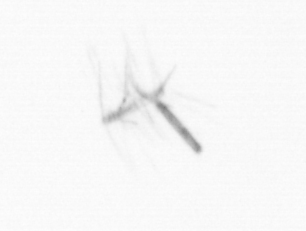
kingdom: Chromista
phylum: Ochrophyta
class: Bacillariophyceae
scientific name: Bacillariophyceae
